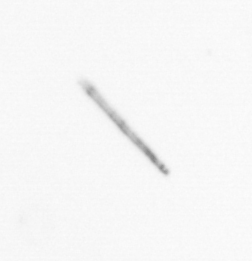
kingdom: Chromista
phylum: Ochrophyta
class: Bacillariophyceae
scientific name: Bacillariophyceae
